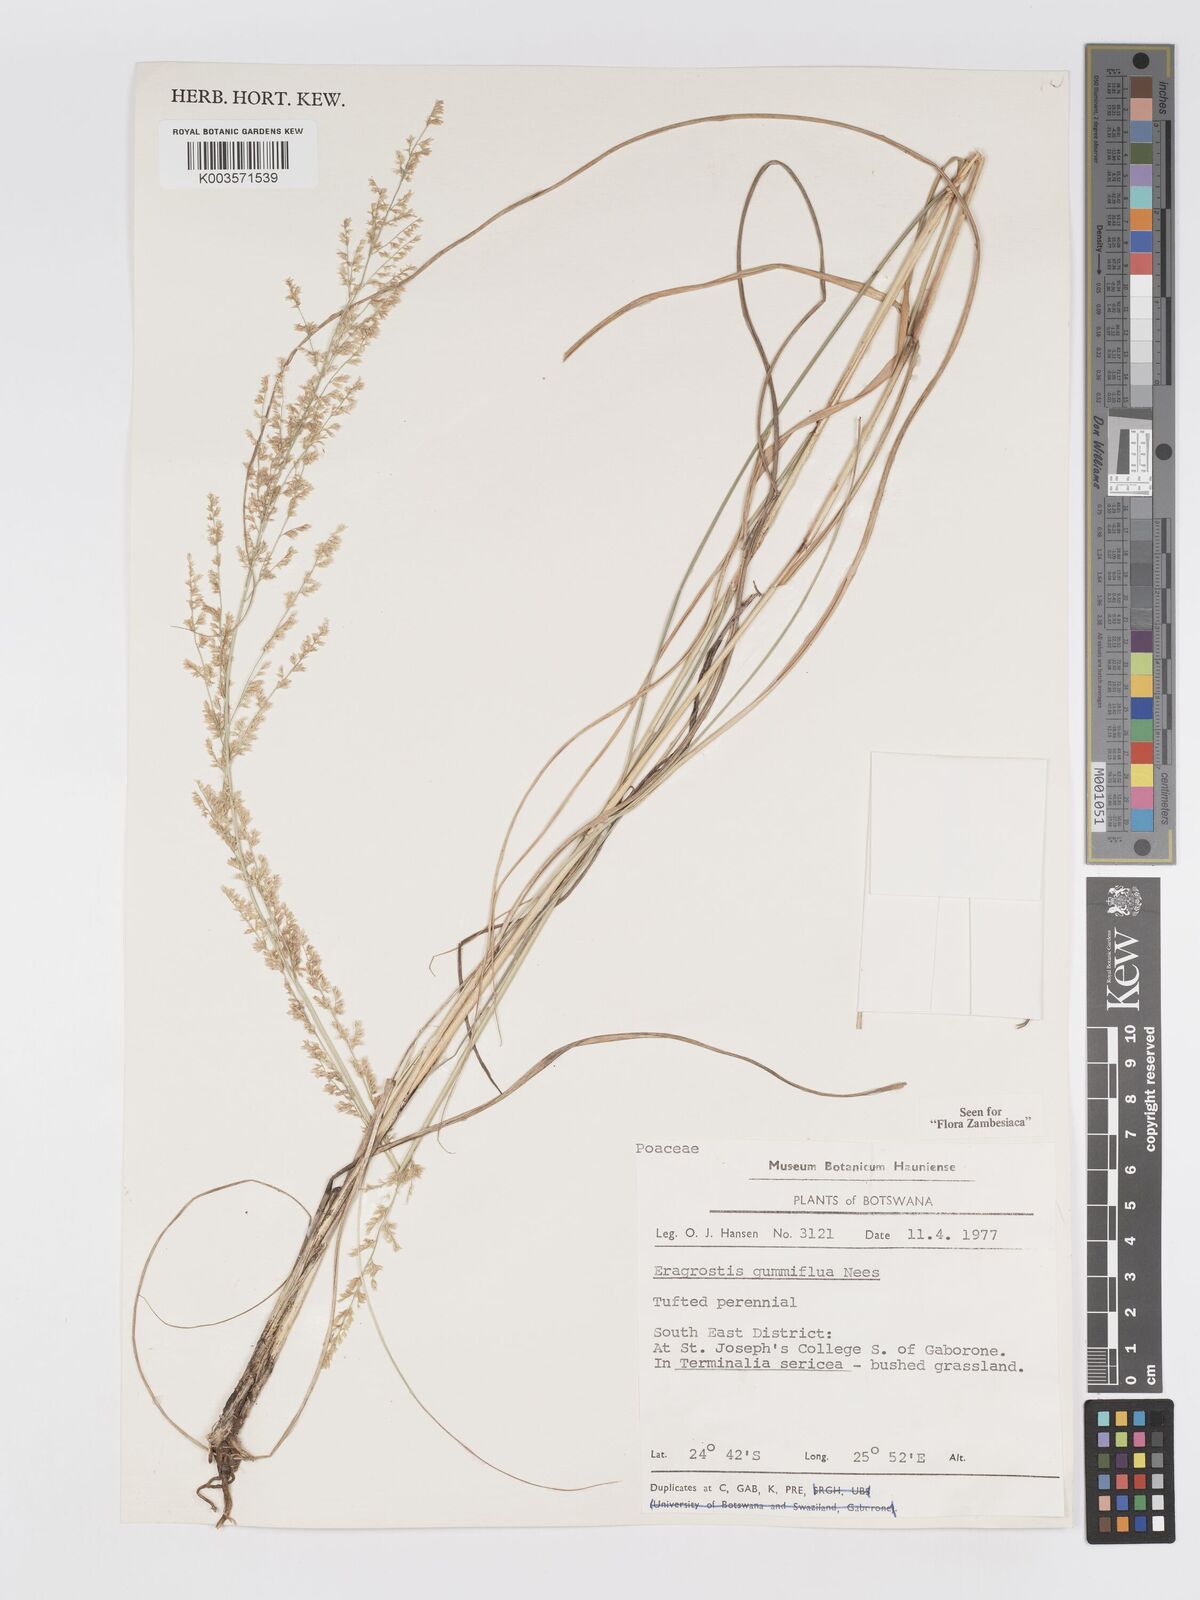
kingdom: Plantae
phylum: Tracheophyta
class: Liliopsida
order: Poales
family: Poaceae
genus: Eragrostis
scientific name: Eragrostis gummiflua
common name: Gum grass
